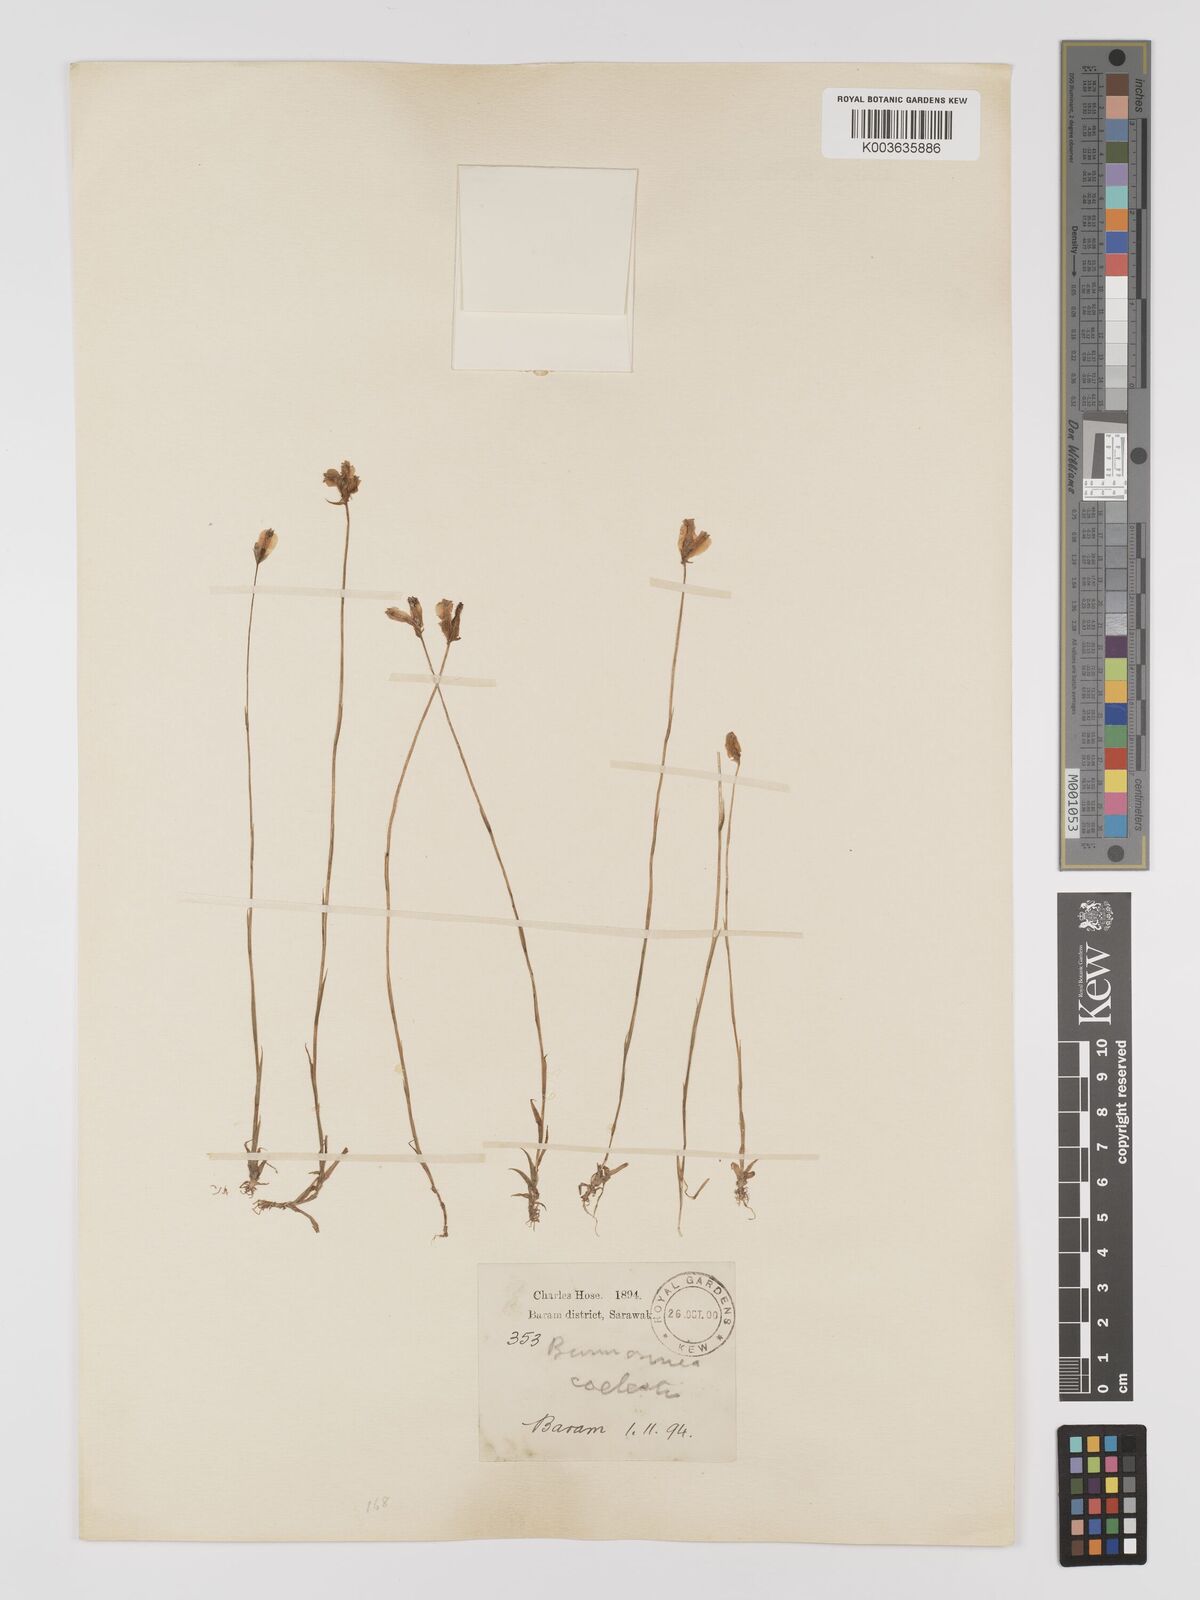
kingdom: Plantae
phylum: Tracheophyta
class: Liliopsida
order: Dioscoreales
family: Burmanniaceae
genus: Burmannia
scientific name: Burmannia coelestis
